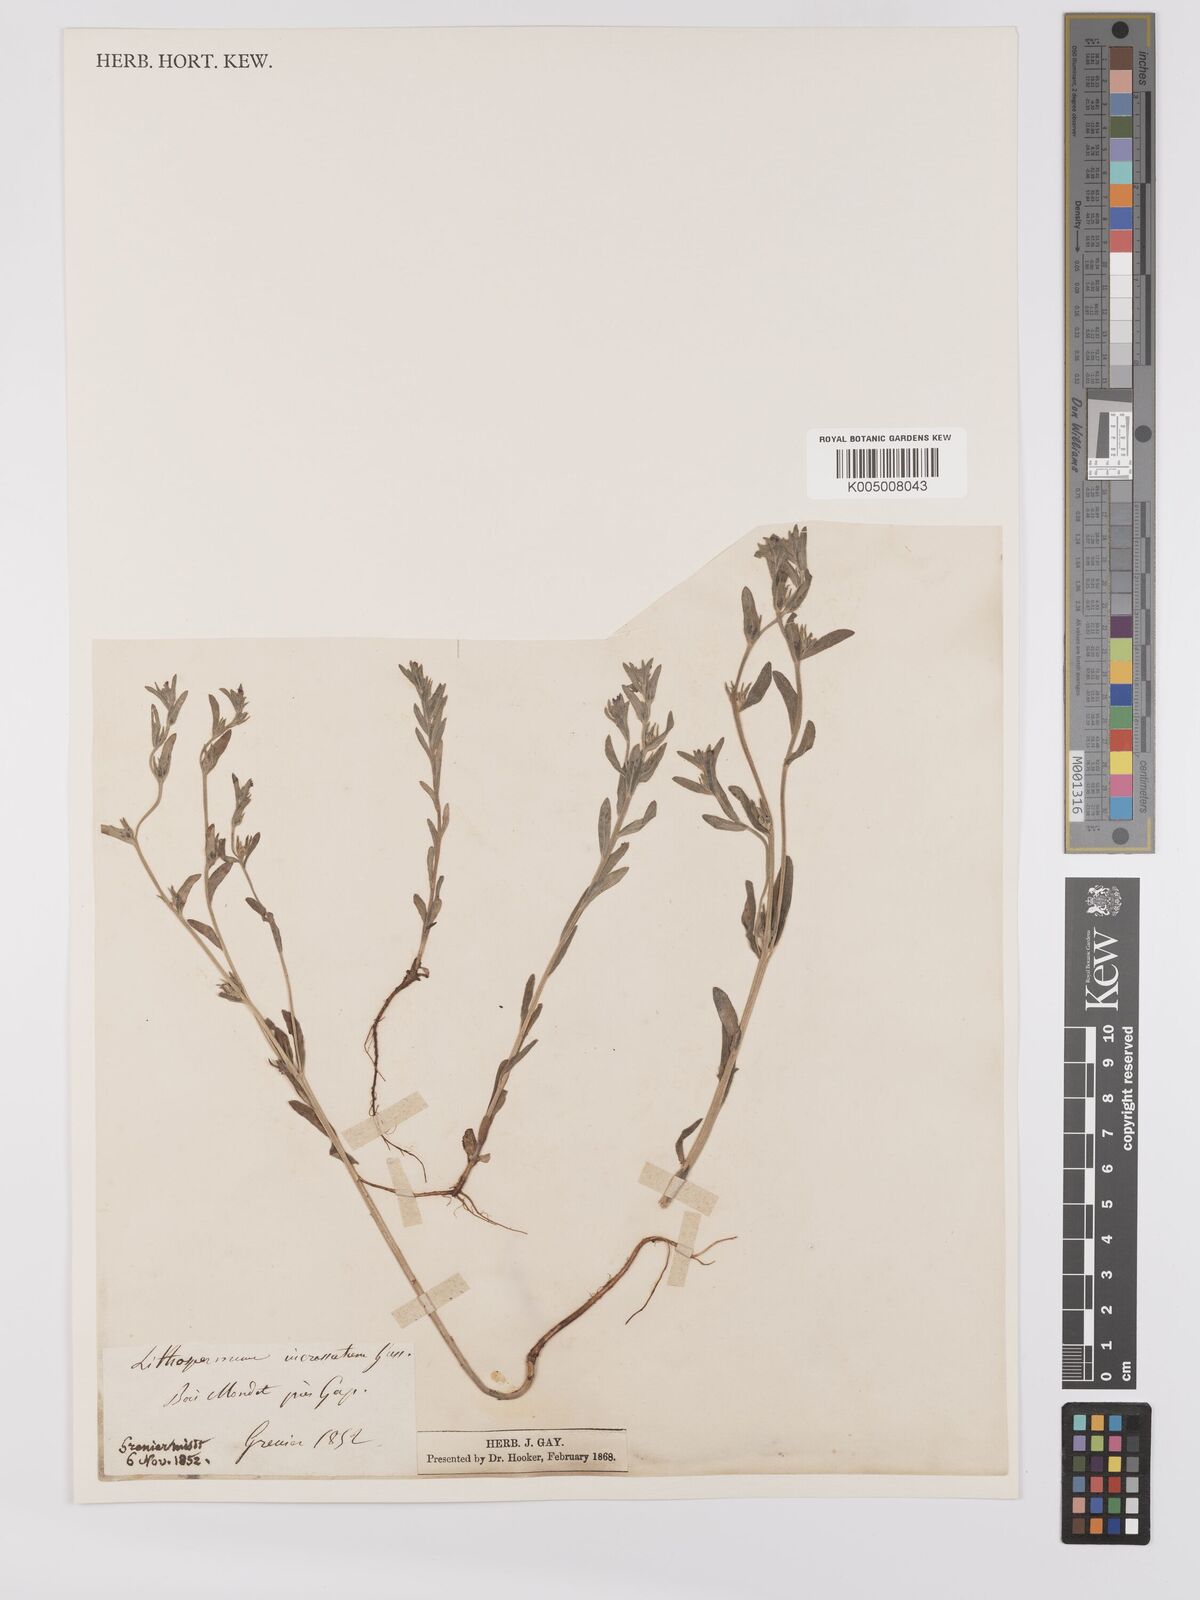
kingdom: Plantae
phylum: Tracheophyta
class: Magnoliopsida
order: Boraginales
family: Boraginaceae
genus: Buglossoides
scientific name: Buglossoides incrassata
